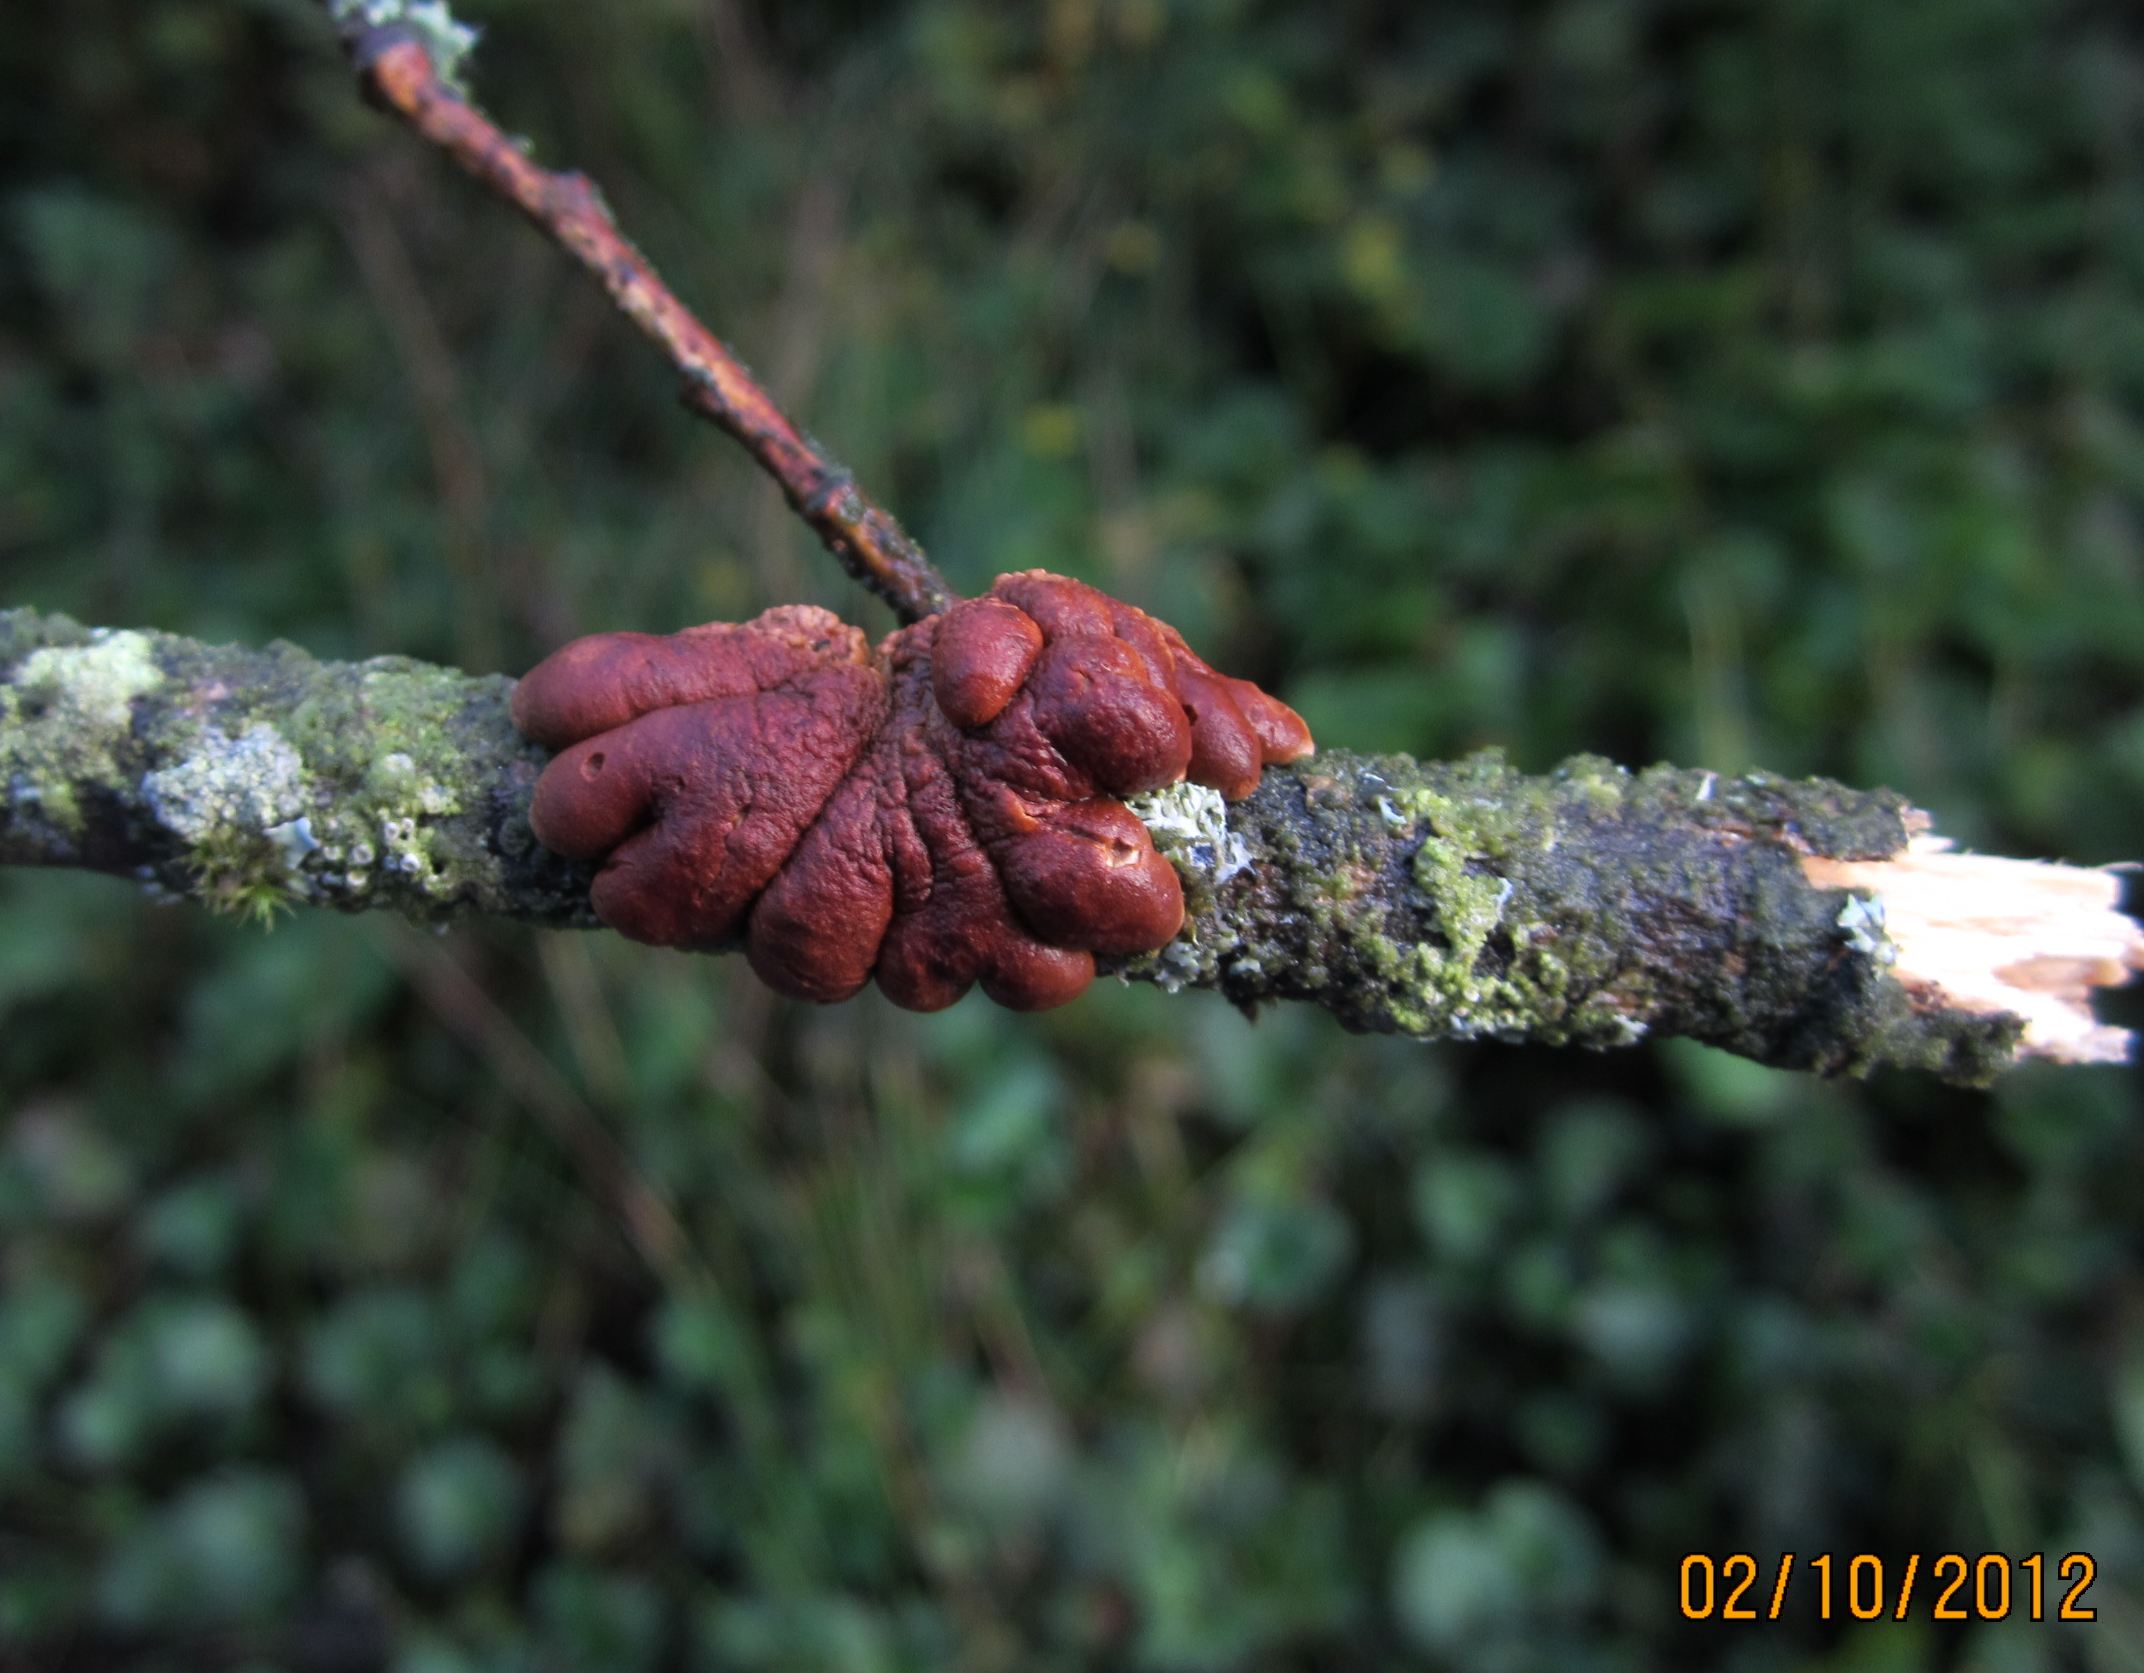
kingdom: Fungi
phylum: Ascomycota
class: Sordariomycetes
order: Hypocreales
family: Hypocreaceae
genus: Hypocreopsis
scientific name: Hypocreopsis lichenoides
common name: pilfinger
